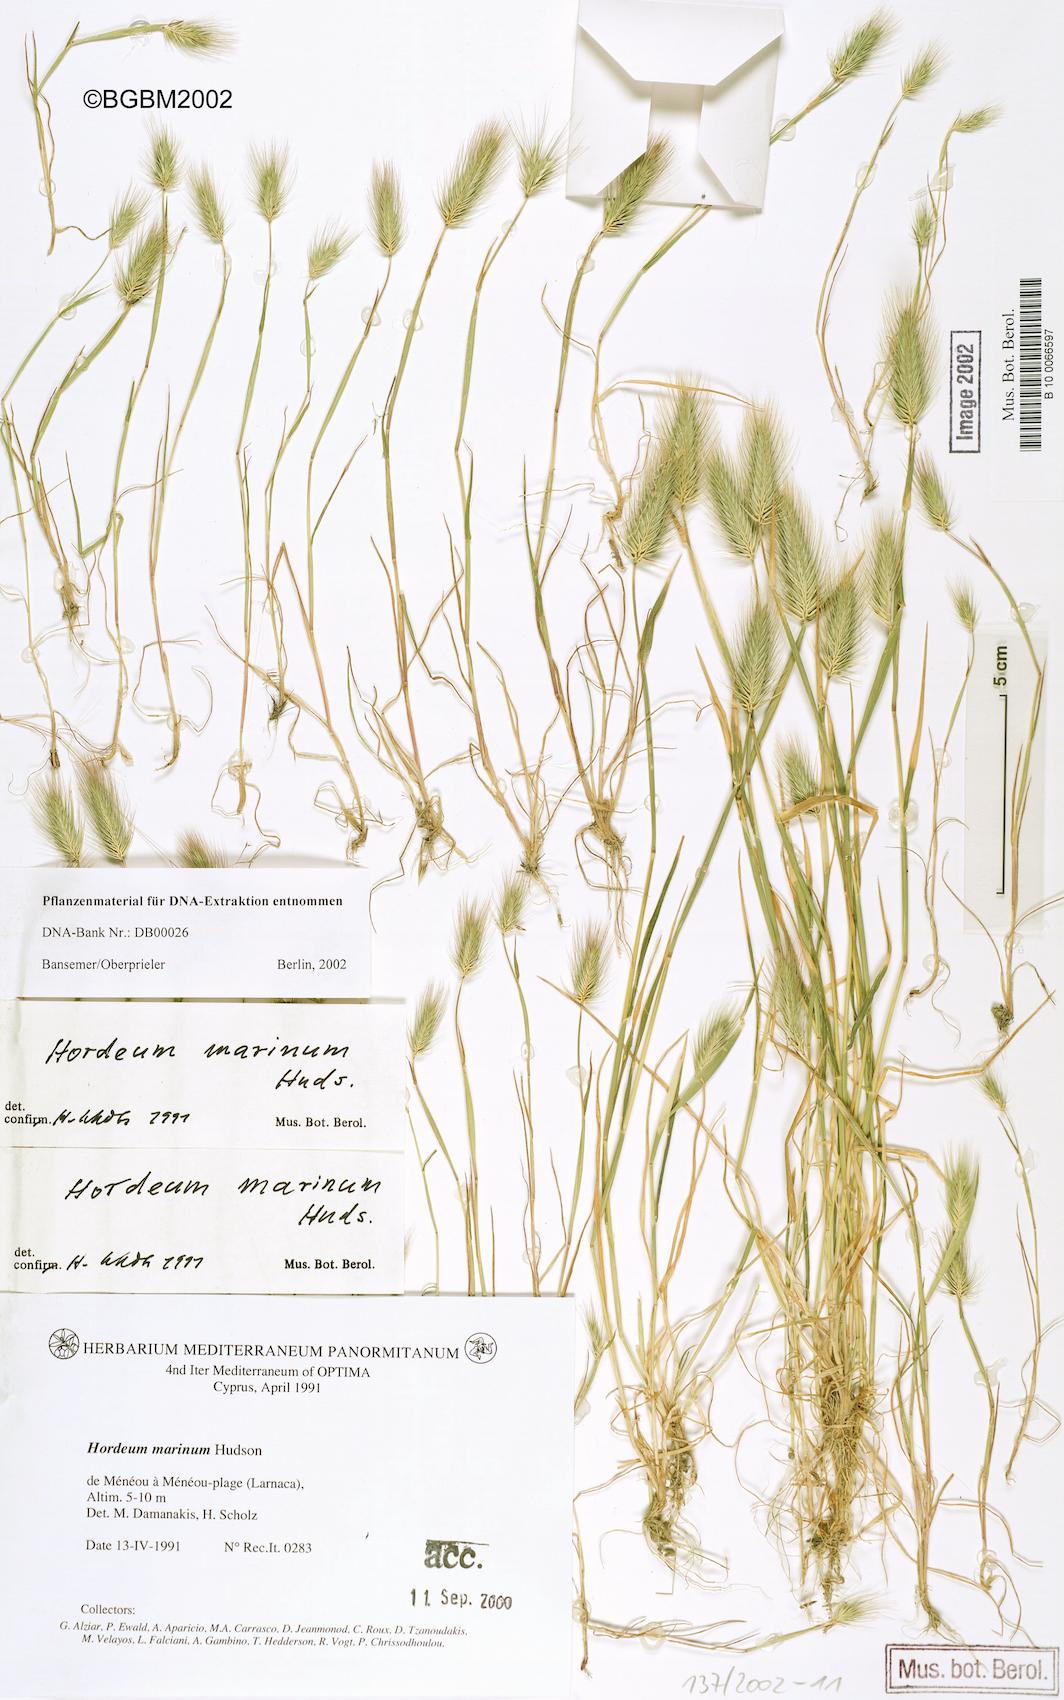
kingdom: Plantae
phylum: Tracheophyta
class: Liliopsida
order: Poales
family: Poaceae
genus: Hordeum
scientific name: Hordeum marinum
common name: Sea barley
